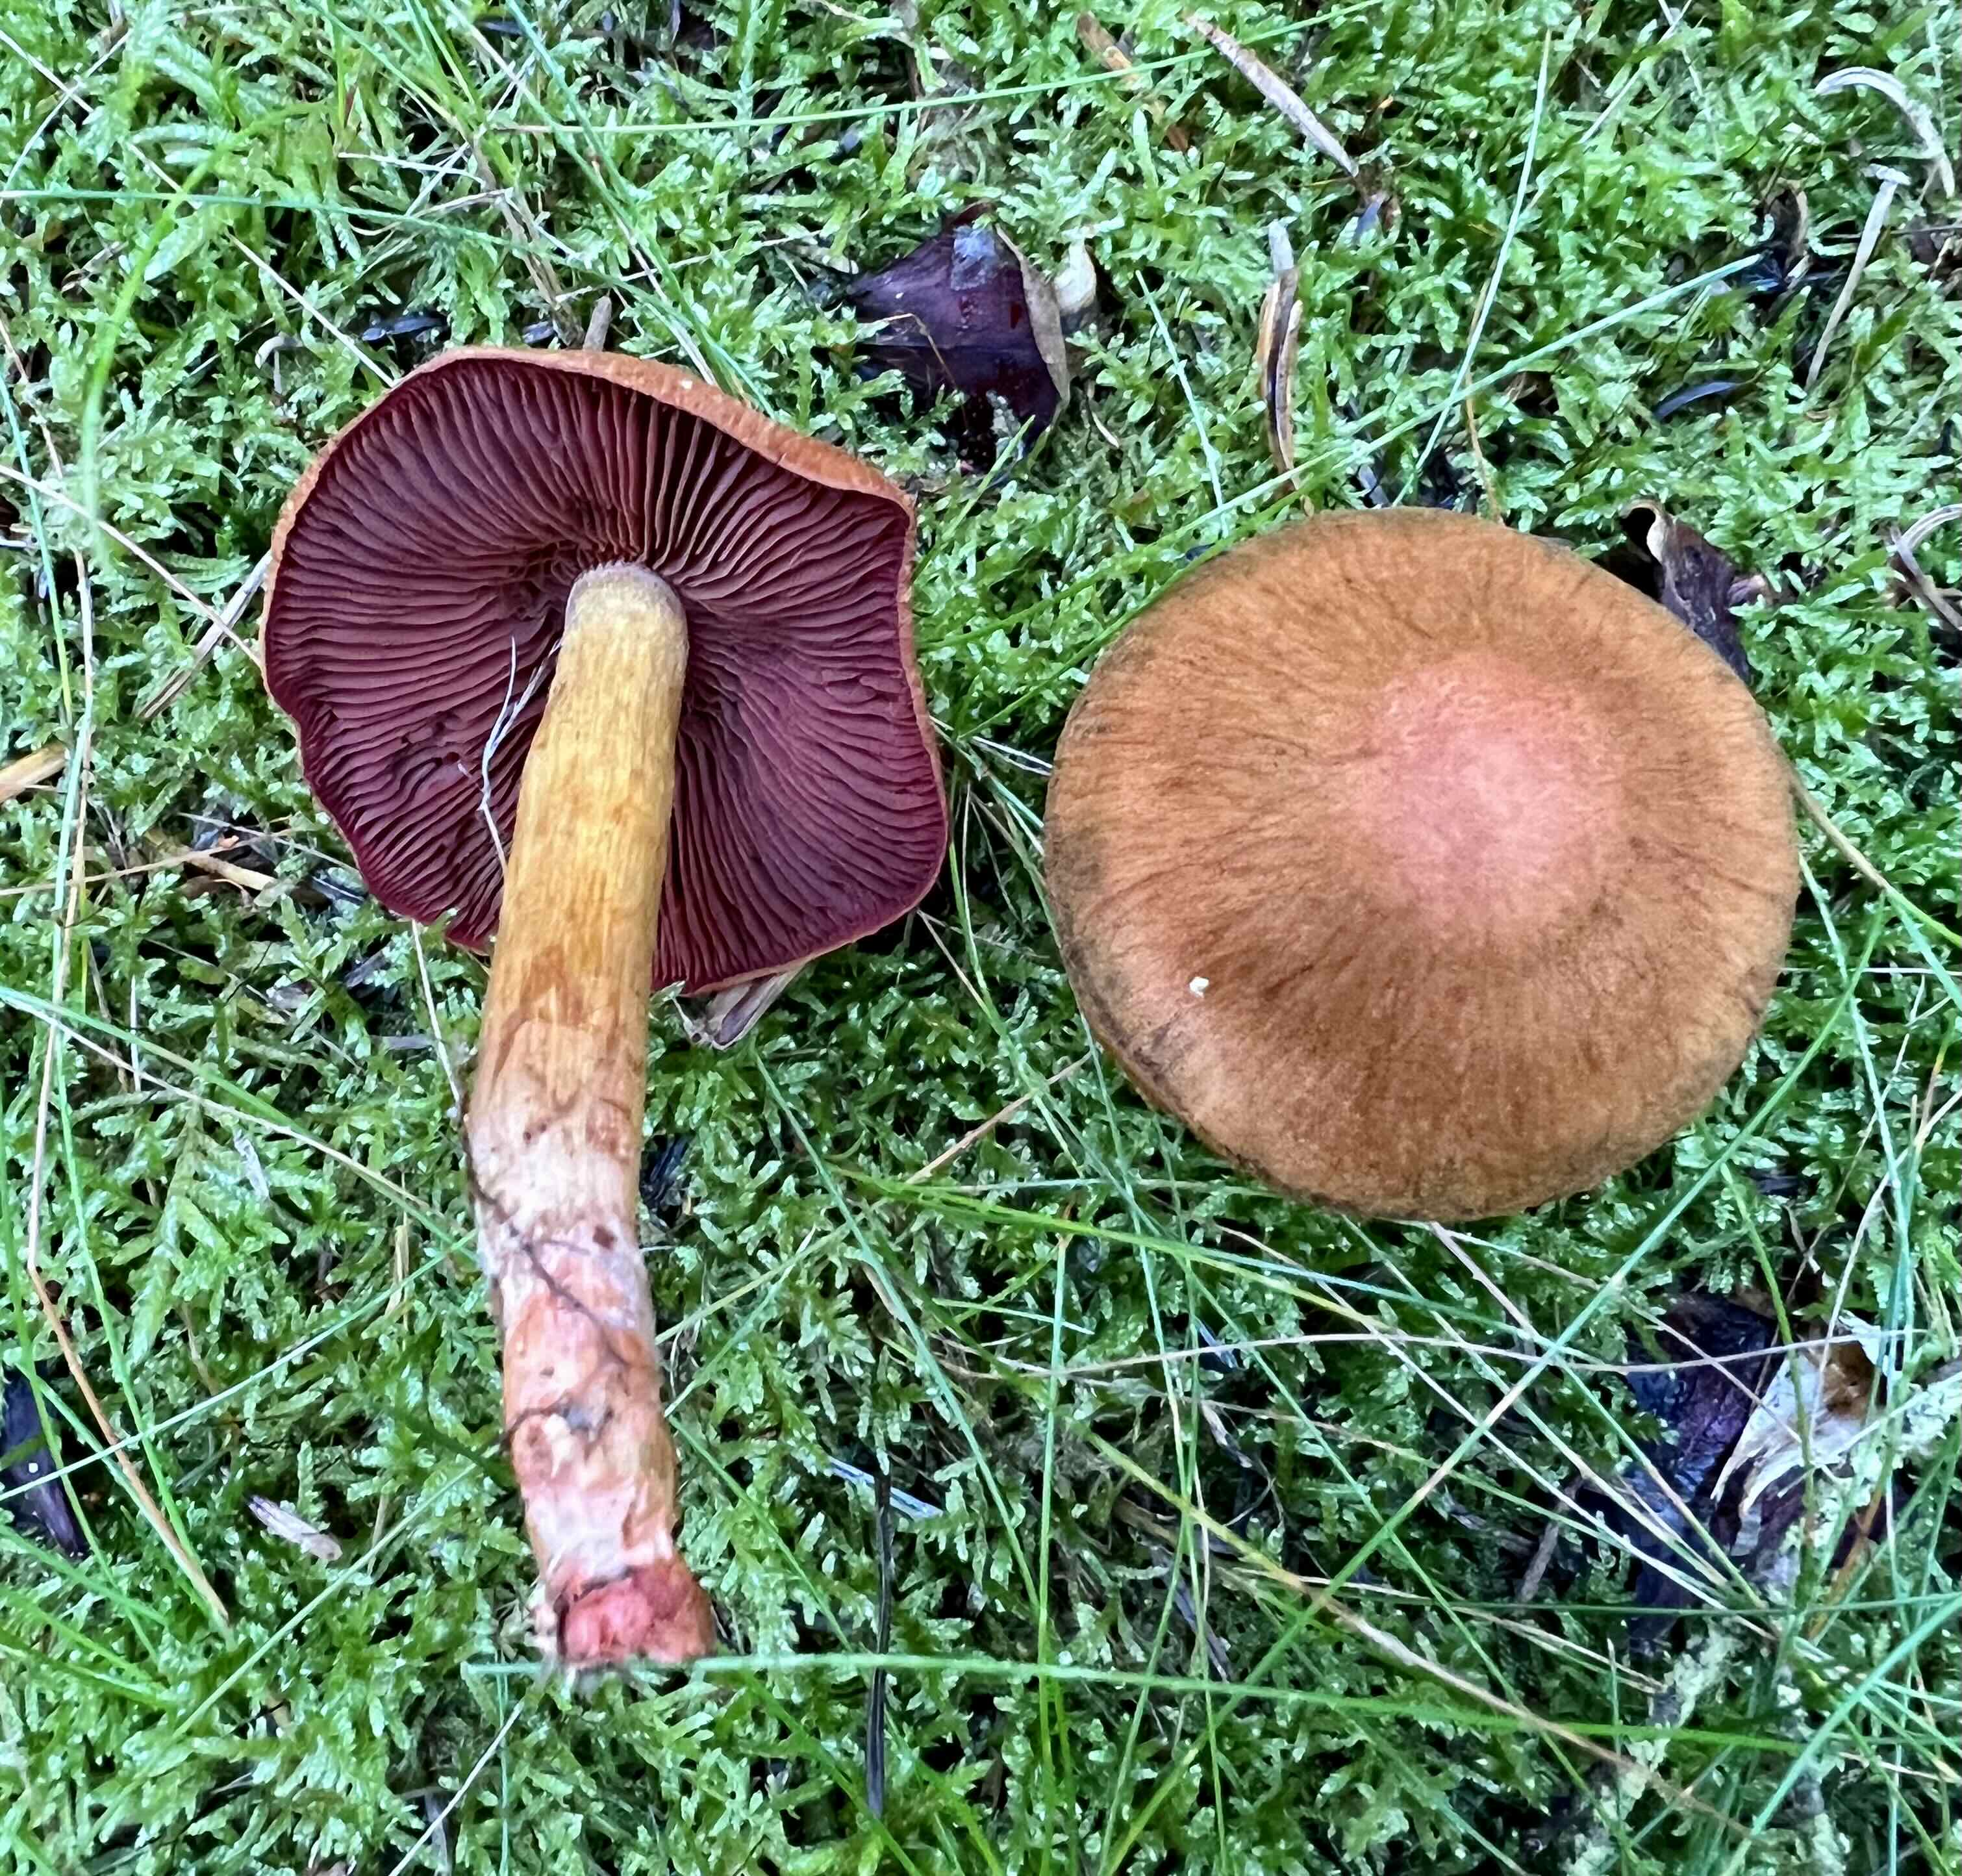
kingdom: Fungi
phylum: Basidiomycota
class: Agaricomycetes
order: Agaricales
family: Cortinariaceae
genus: Cortinarius
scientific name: Cortinarius
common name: cinnoberbladet slørhat
